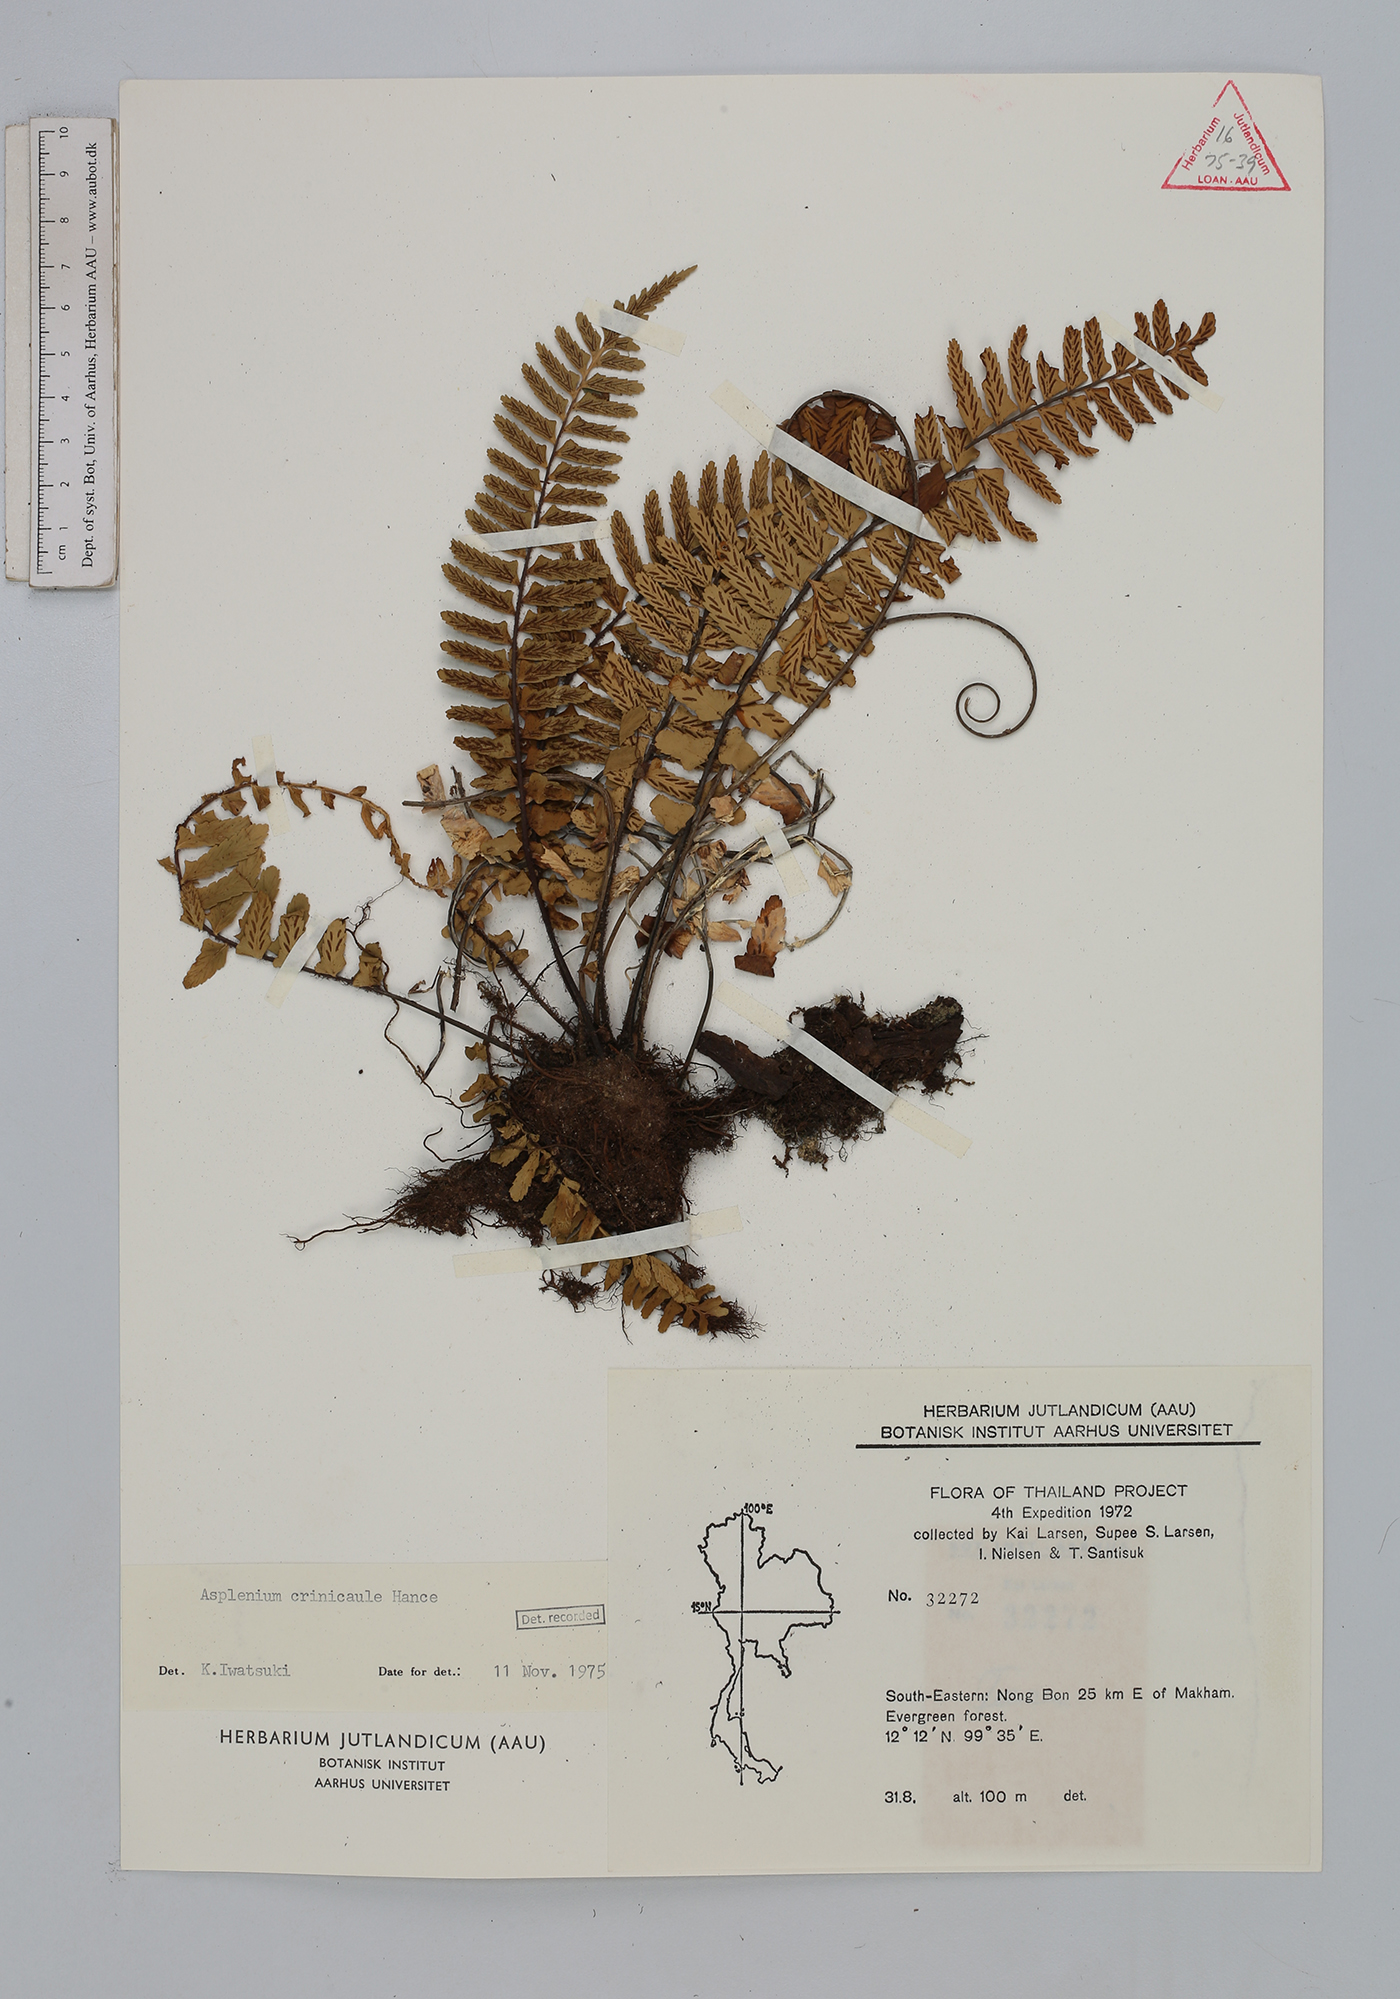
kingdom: Plantae
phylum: Tracheophyta
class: Polypodiopsida
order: Polypodiales
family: Aspleniaceae
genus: Asplenium
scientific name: Asplenium crinicaule
